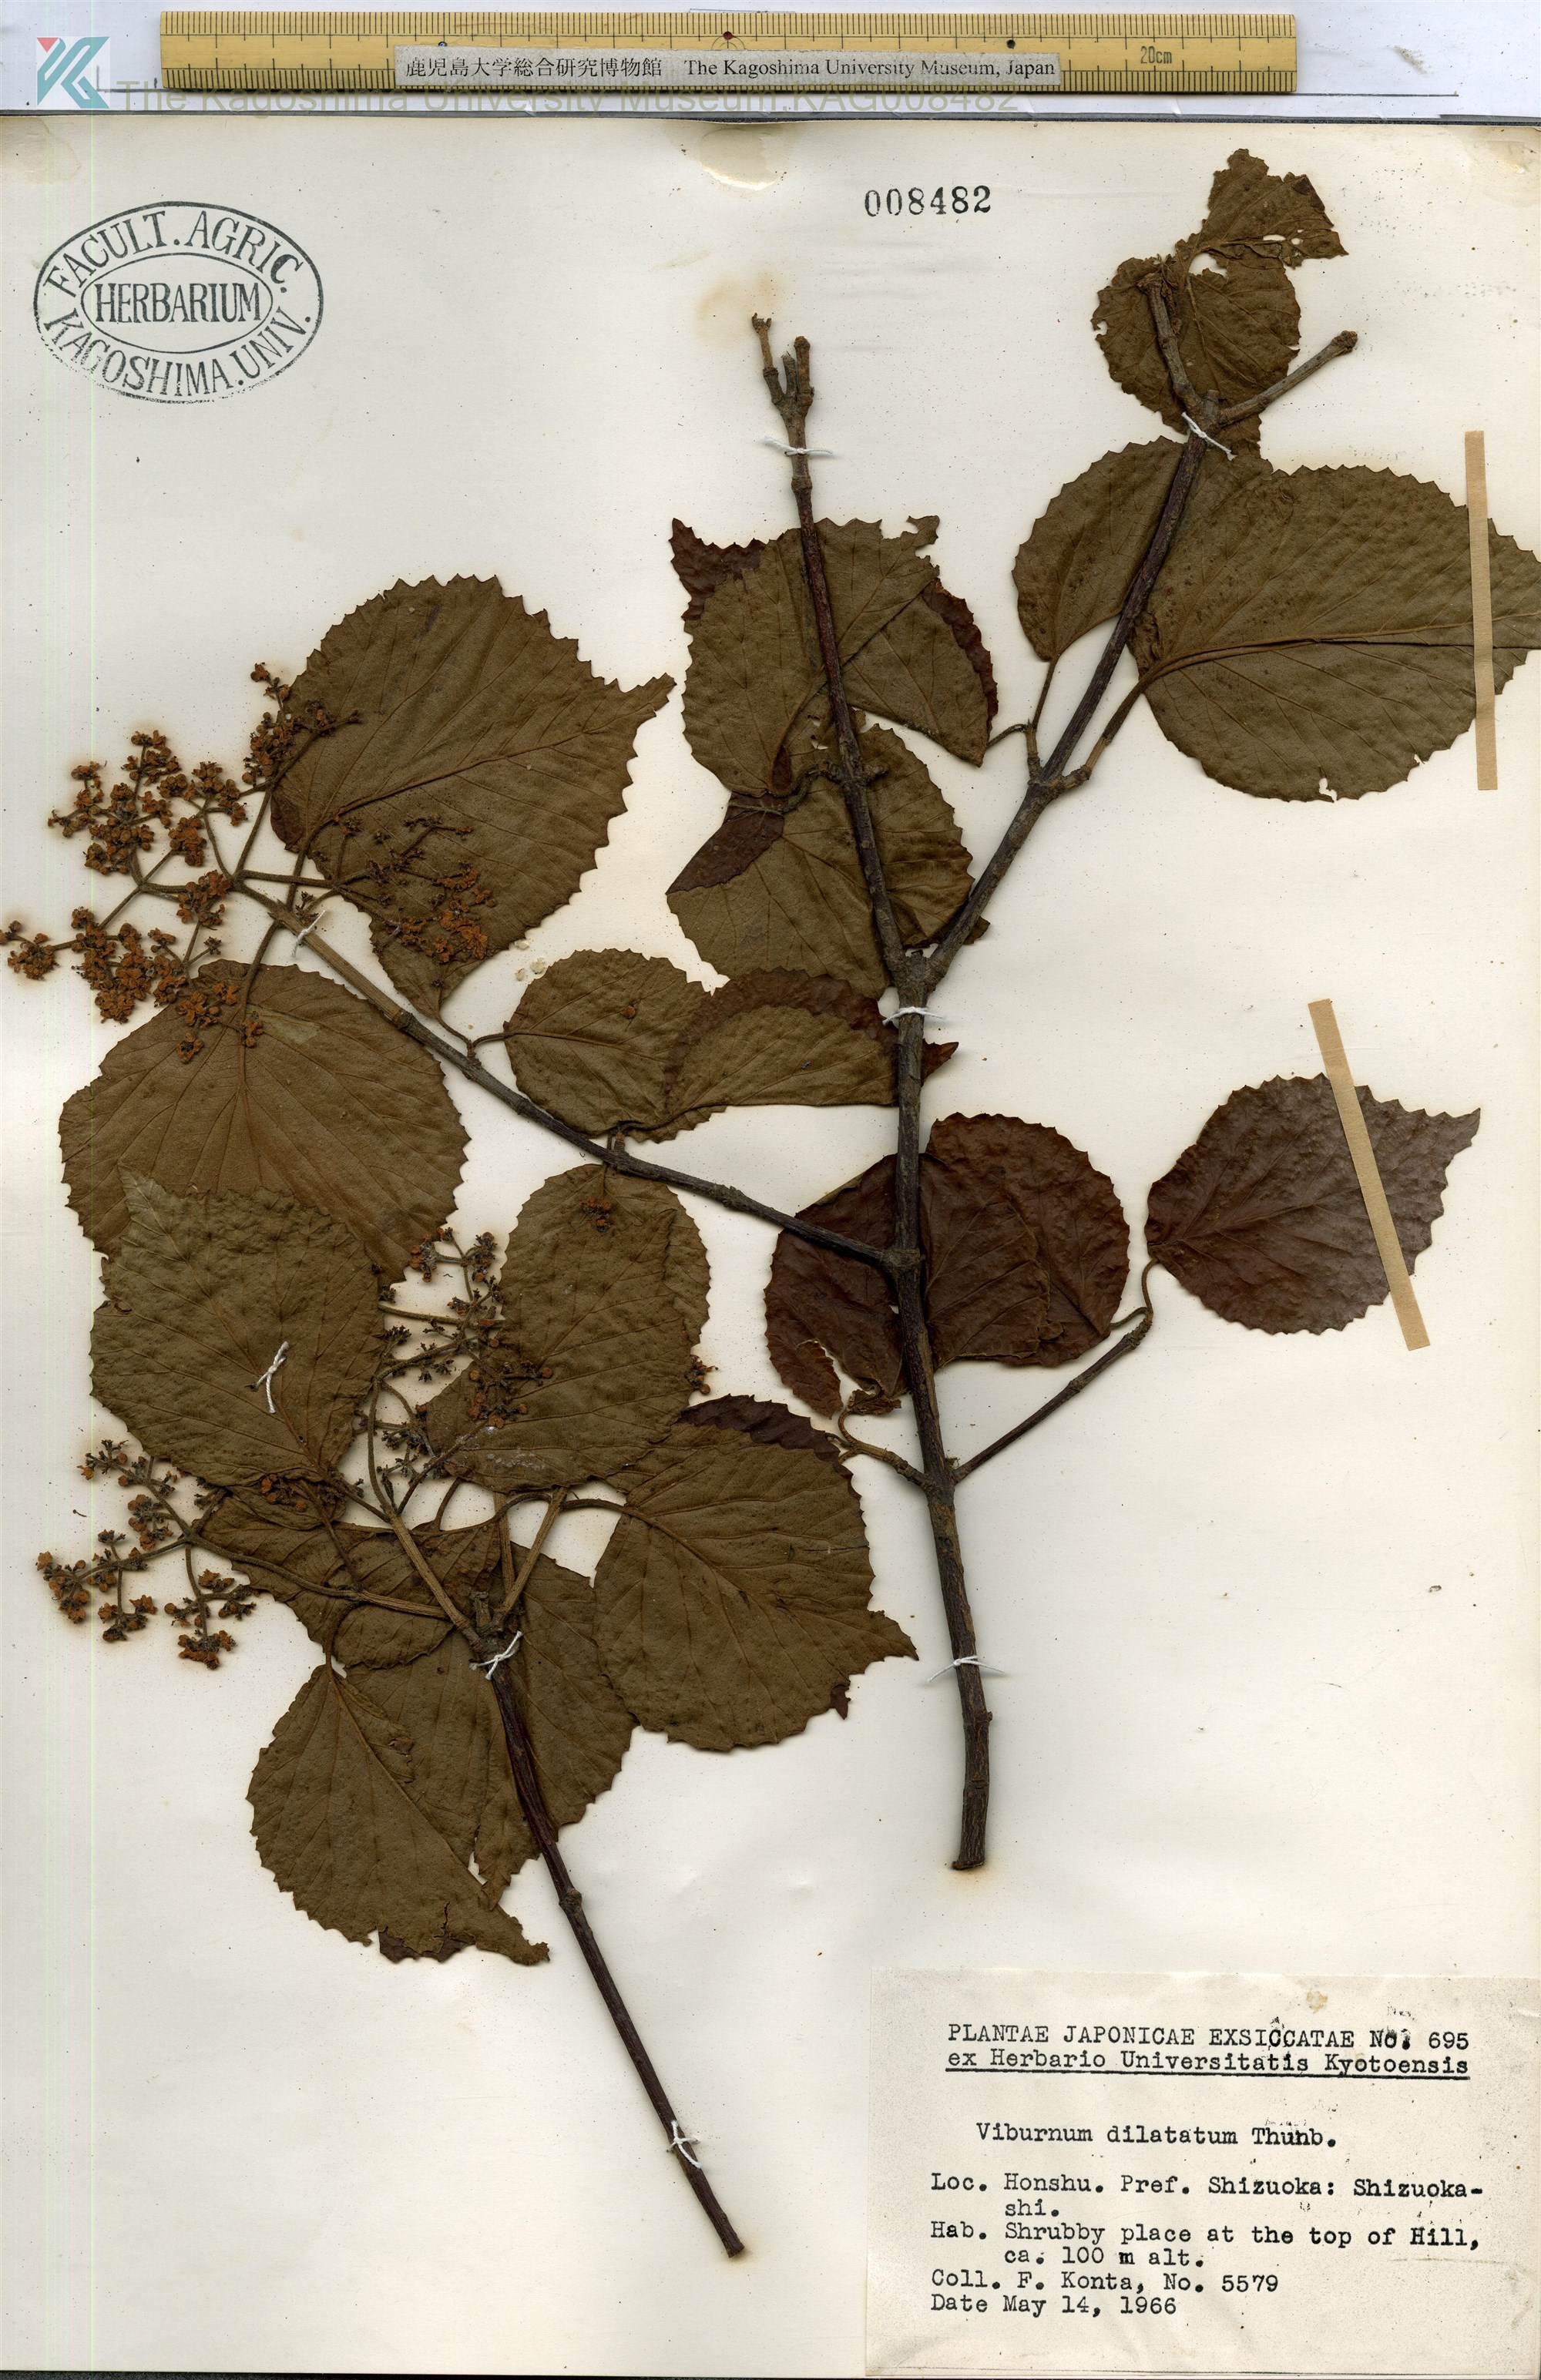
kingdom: Plantae
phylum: Tracheophyta
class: Magnoliopsida
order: Dipsacales
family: Viburnaceae
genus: Viburnum
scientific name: Viburnum dilatatum
